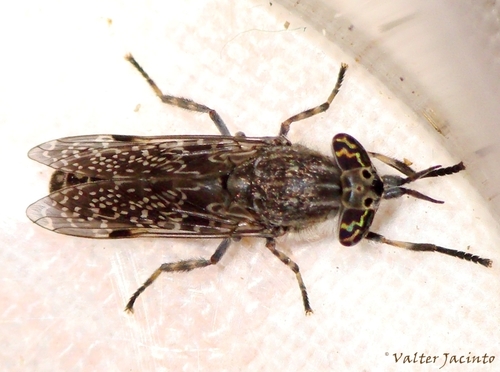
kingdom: Animalia
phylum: Arthropoda
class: Insecta
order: Diptera
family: Tabanidae
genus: Haematopota
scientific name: Haematopota csikii
